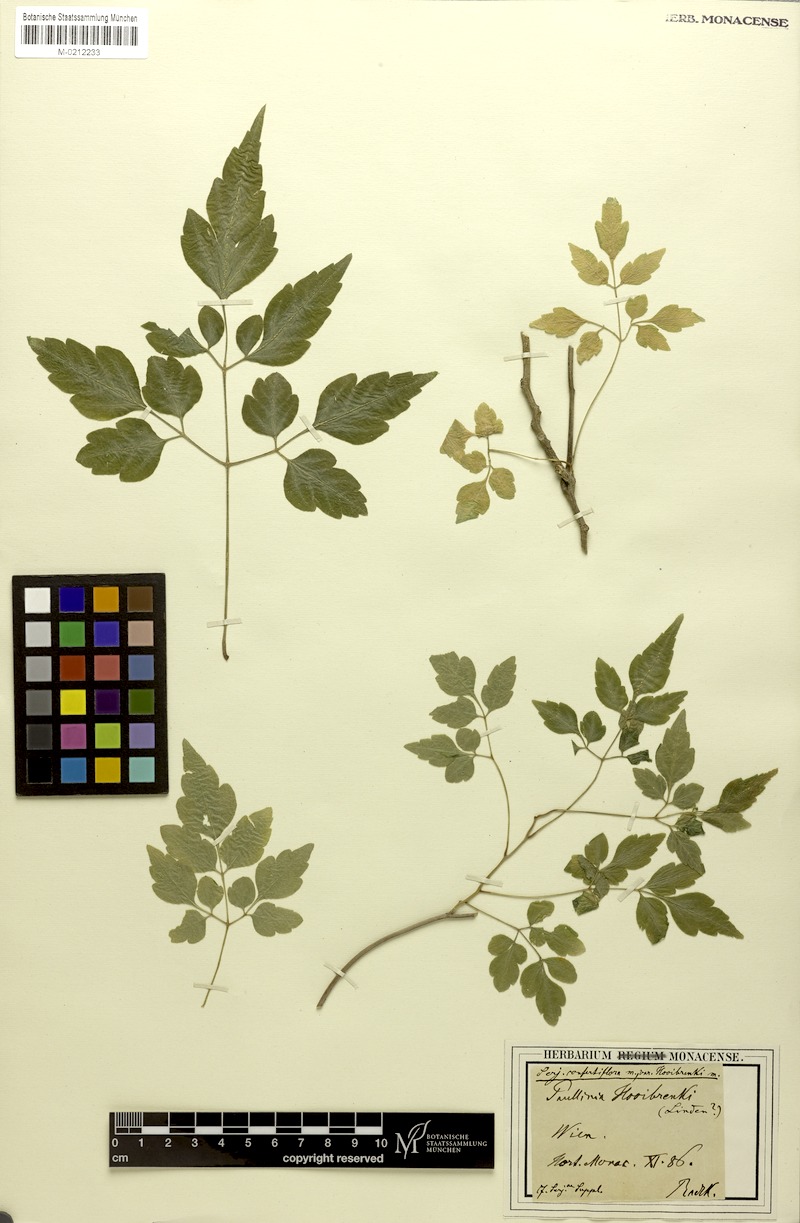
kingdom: Plantae
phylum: Tracheophyta
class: Magnoliopsida
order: Sapindales
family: Sapindaceae
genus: Serjania
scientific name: Serjania confertiflora
